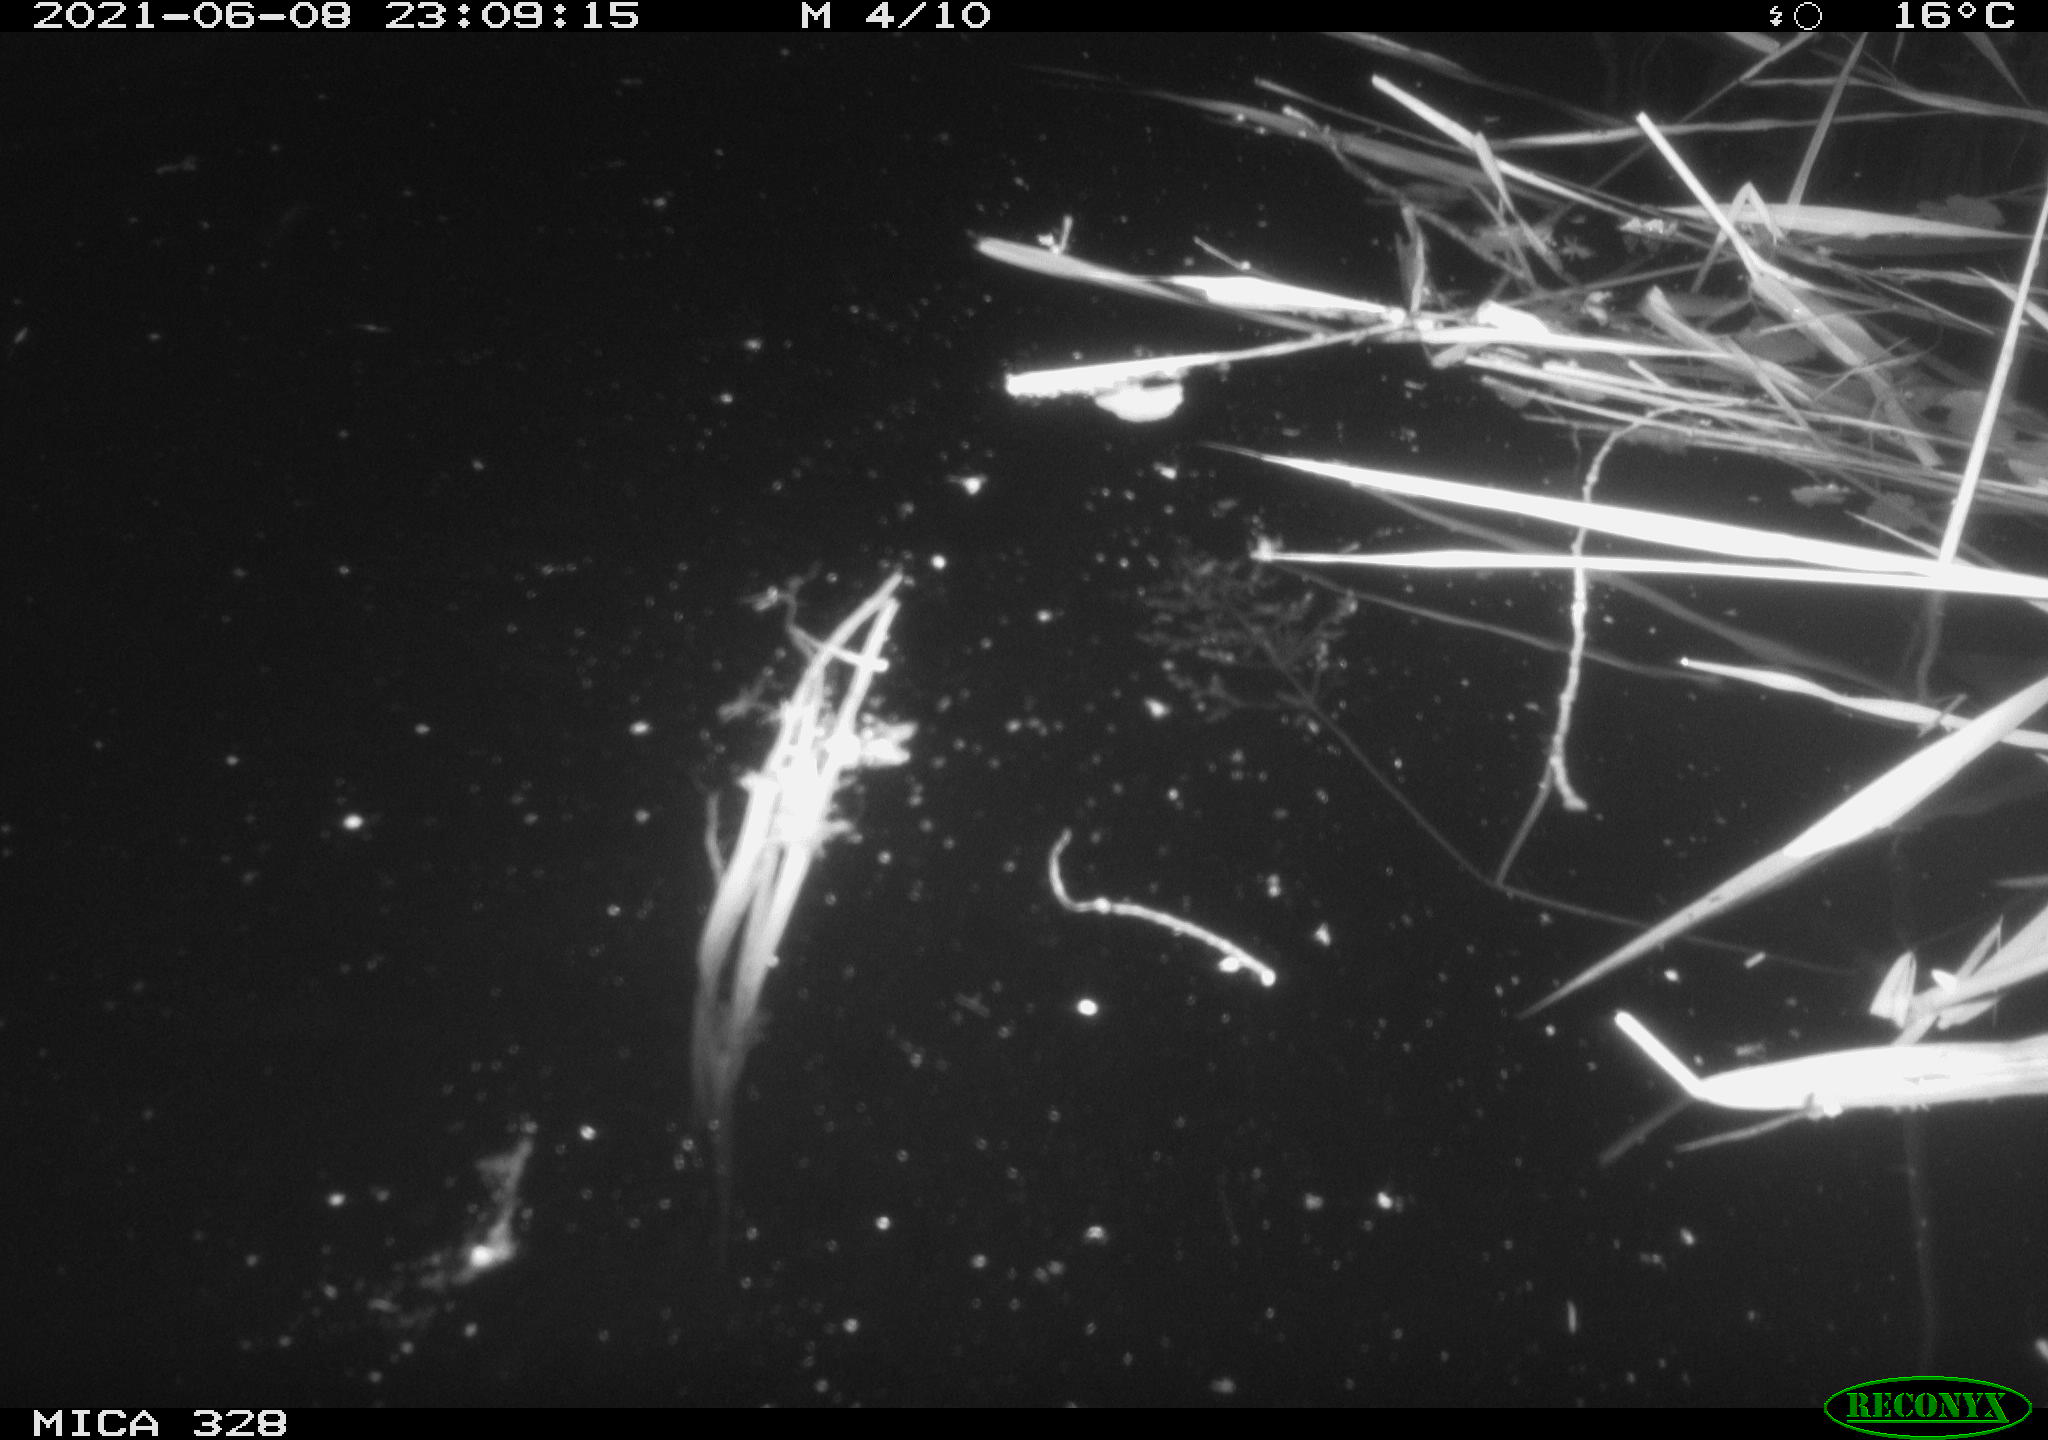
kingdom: Animalia
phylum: Chordata
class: Mammalia
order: Rodentia
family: Cricetidae
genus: Ondatra
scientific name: Ondatra zibethicus
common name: Muskrat
